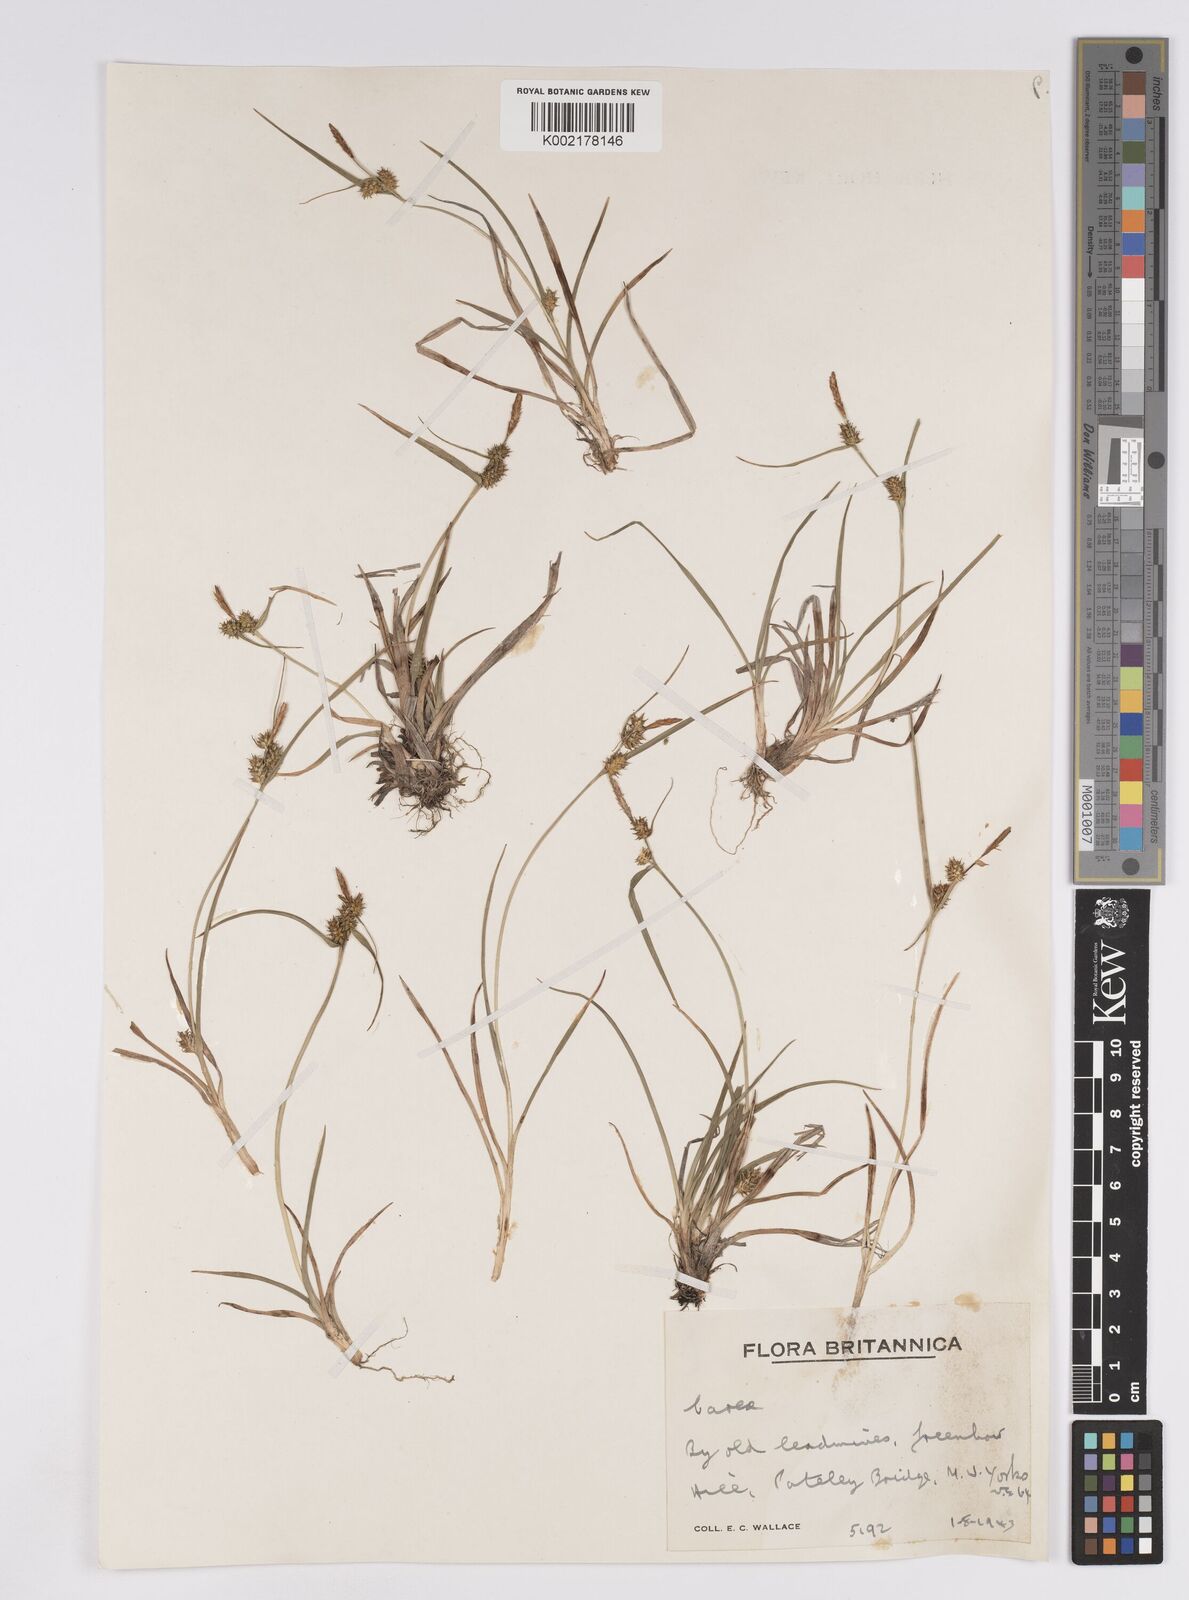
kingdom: Plantae
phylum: Tracheophyta
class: Liliopsida
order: Poales
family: Cyperaceae
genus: Carex
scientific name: Carex demissa
